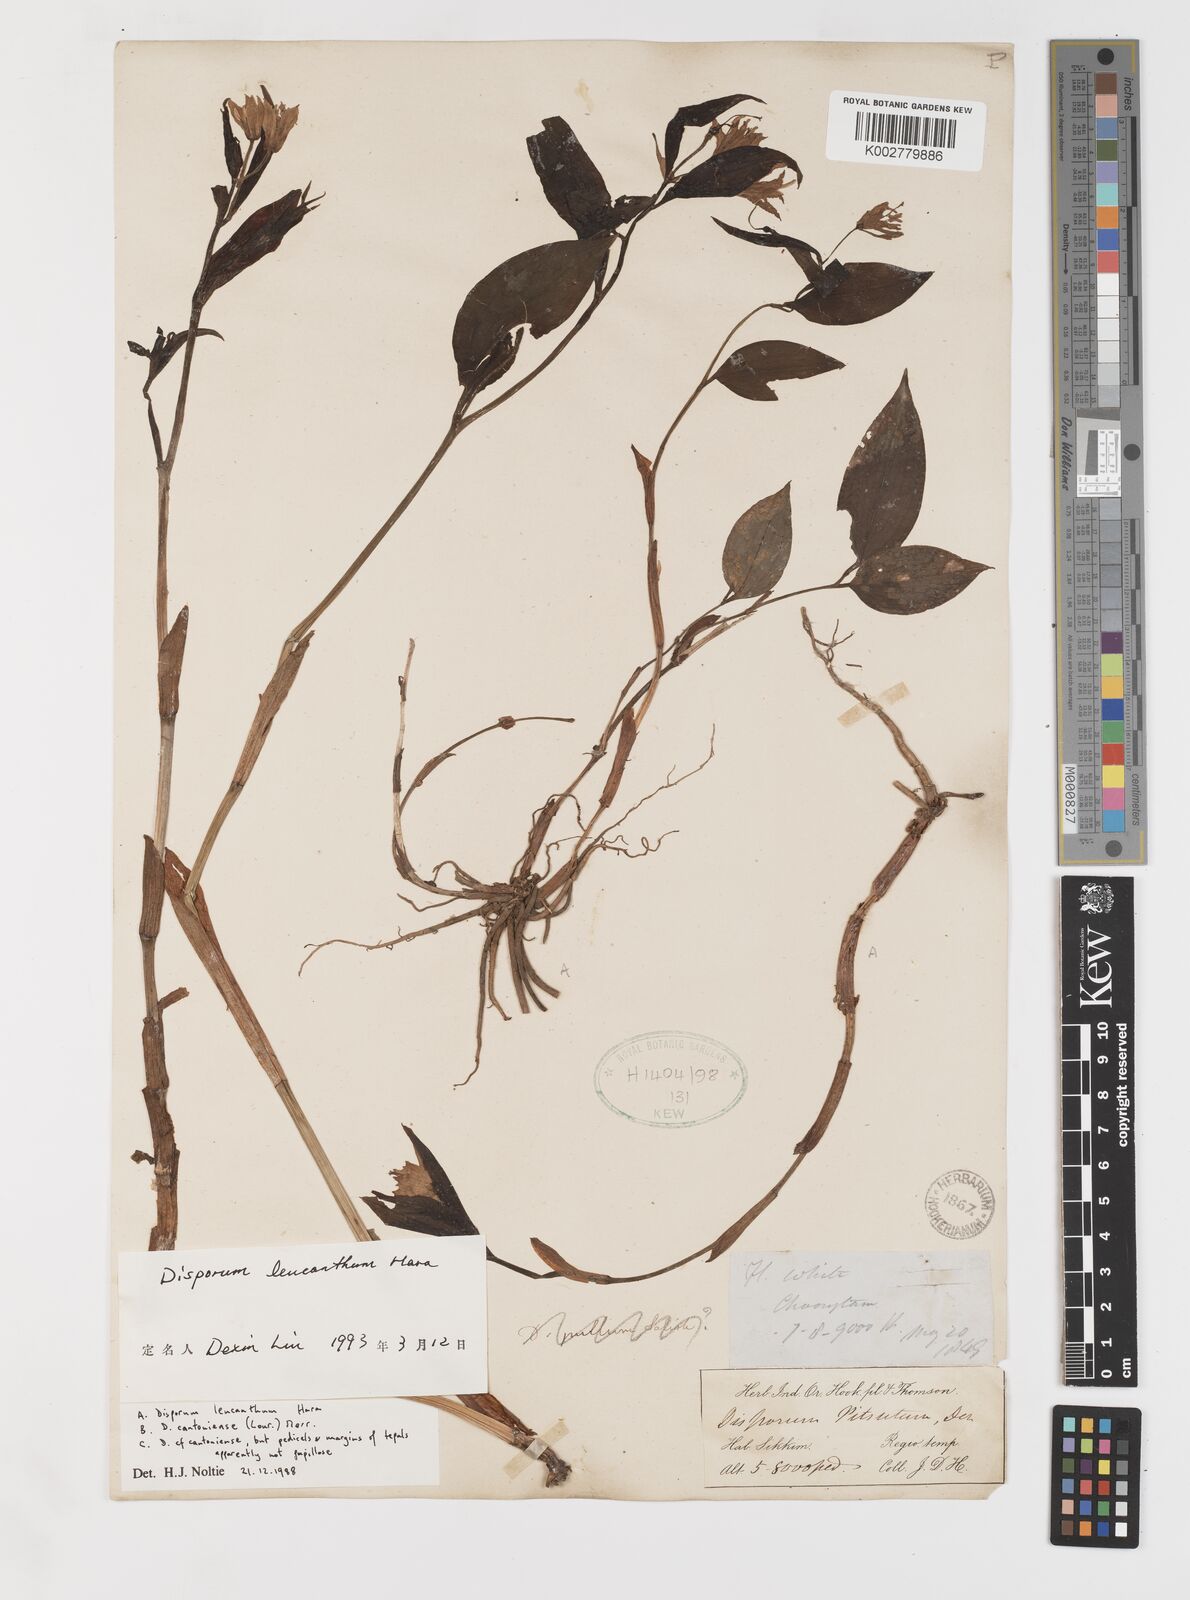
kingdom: Plantae
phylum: Tracheophyta
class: Liliopsida
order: Liliales
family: Colchicaceae
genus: Disporum
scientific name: Disporum leucanthum
